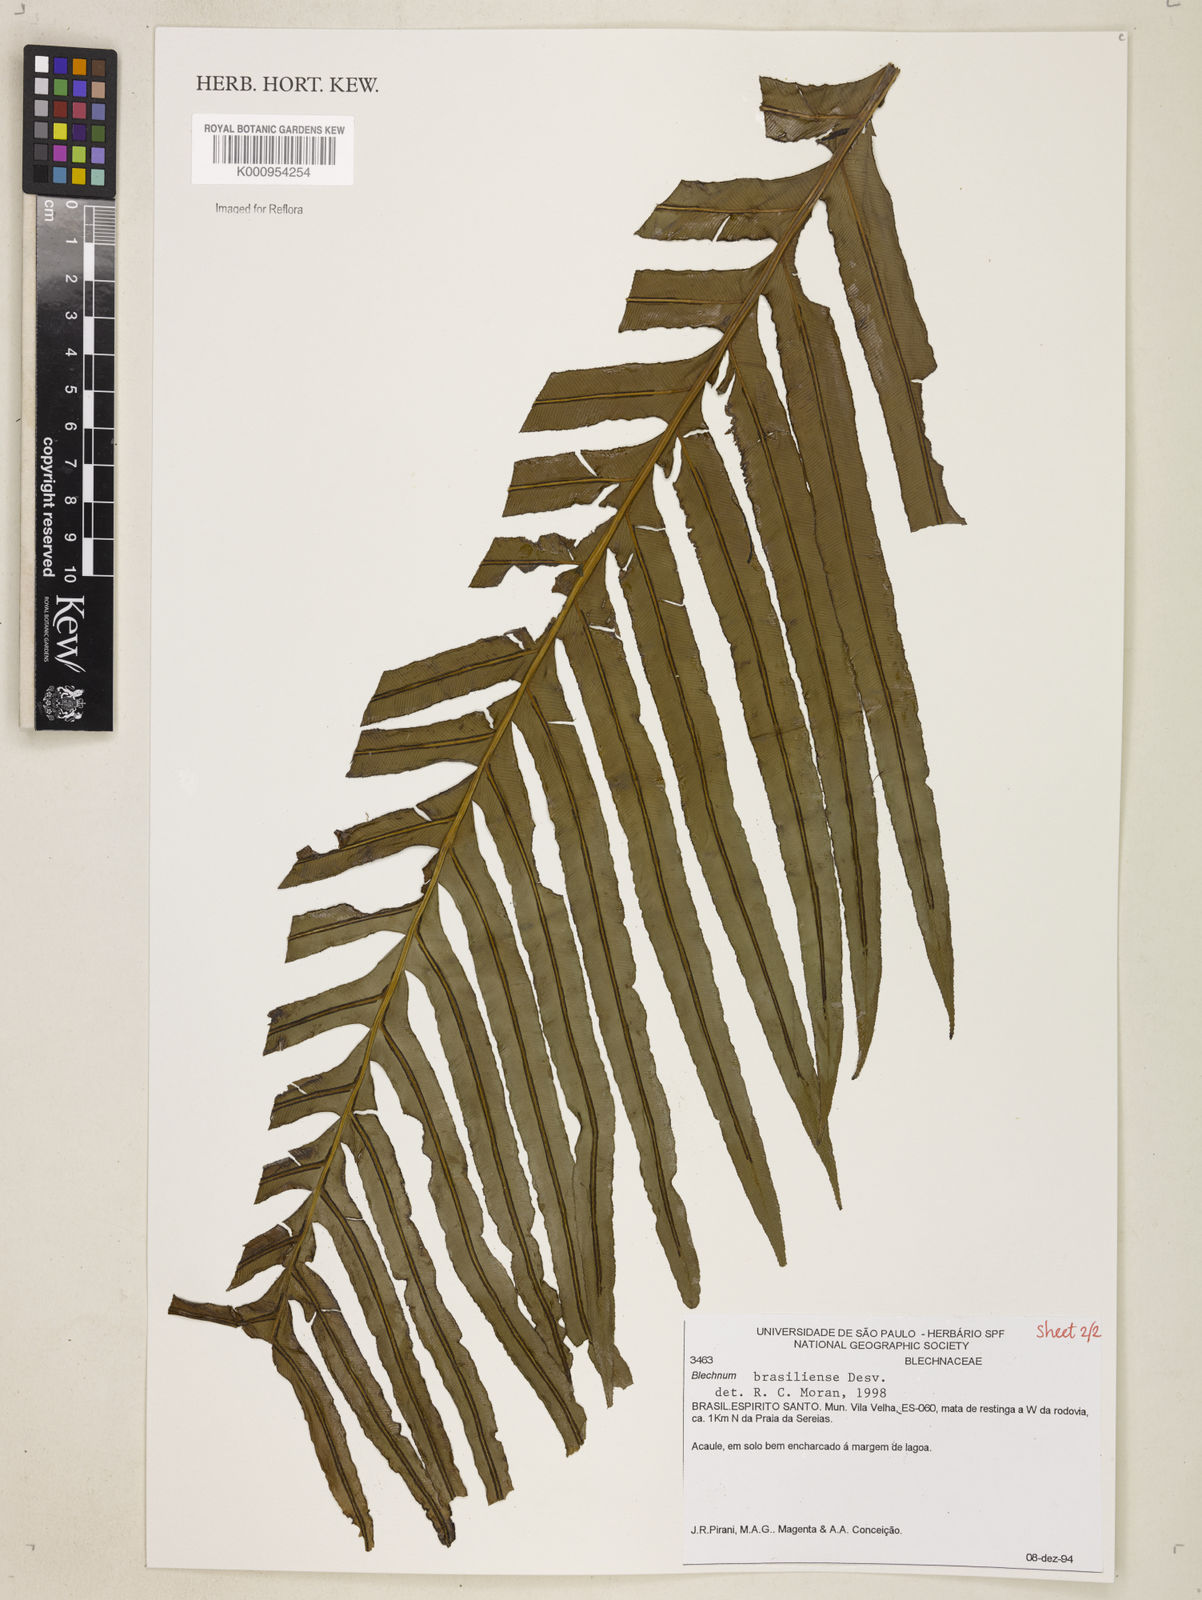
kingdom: Plantae
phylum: Tracheophyta
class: Polypodiopsida
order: Polypodiales
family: Blechnaceae
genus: Neoblechnum
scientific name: Neoblechnum brasiliense
